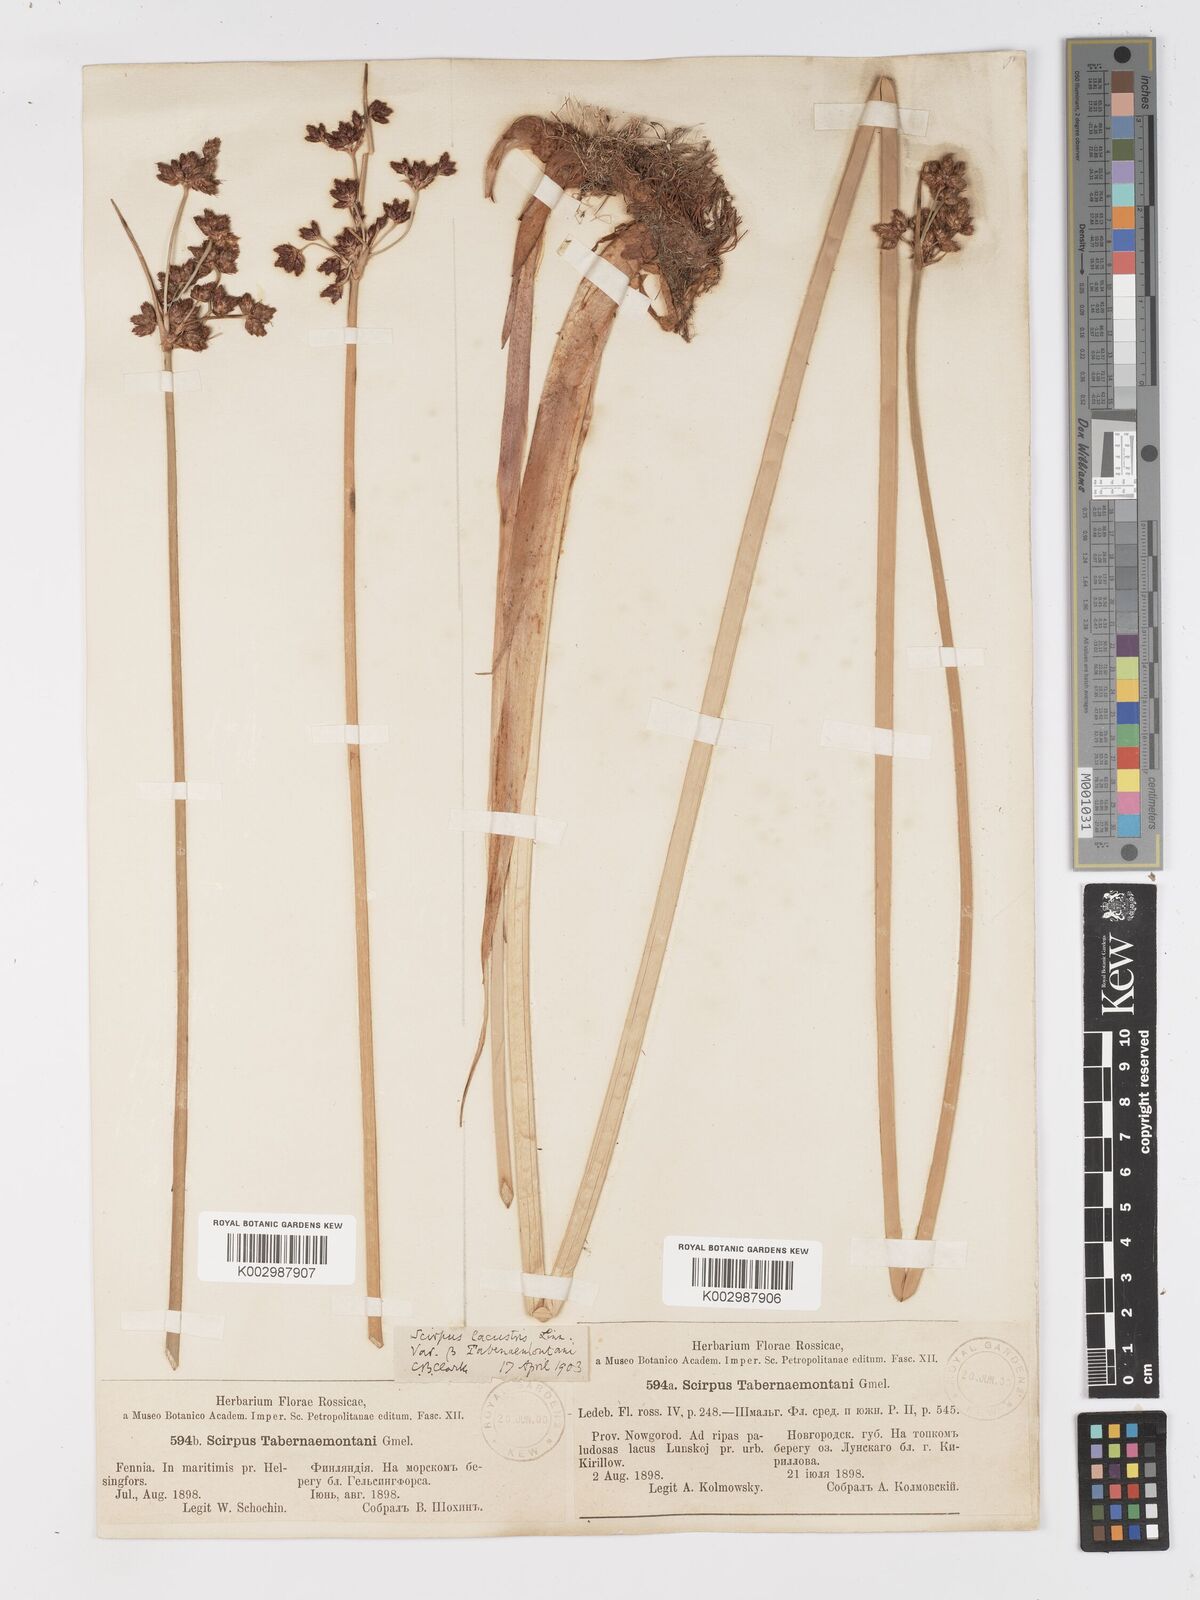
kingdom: Plantae
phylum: Tracheophyta
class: Liliopsida
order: Poales
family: Cyperaceae
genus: Schoenoplectus
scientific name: Schoenoplectus tabernaemontani
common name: Grey club-rush
